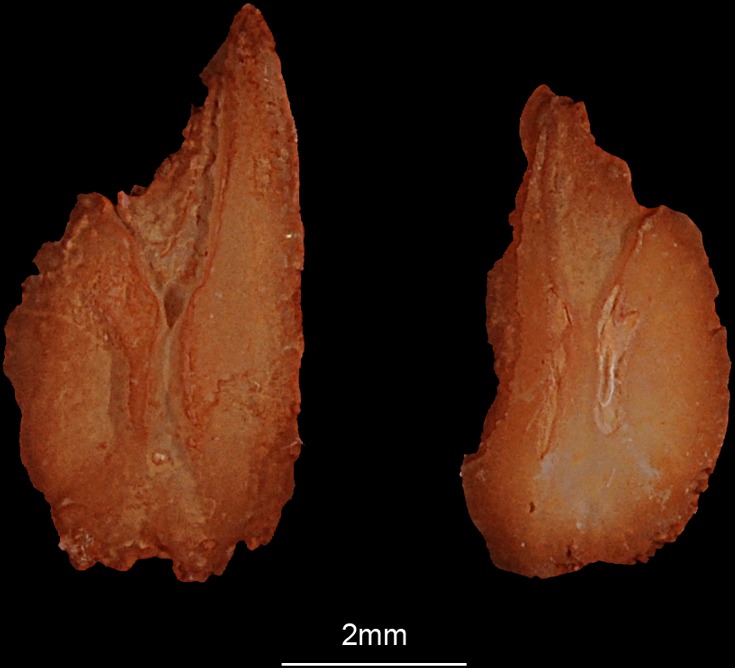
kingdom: Animalia
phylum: Chordata
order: Salmoniformes
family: Salmonidae
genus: Coregonus
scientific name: Coregonus lavaretus
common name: Schelly
